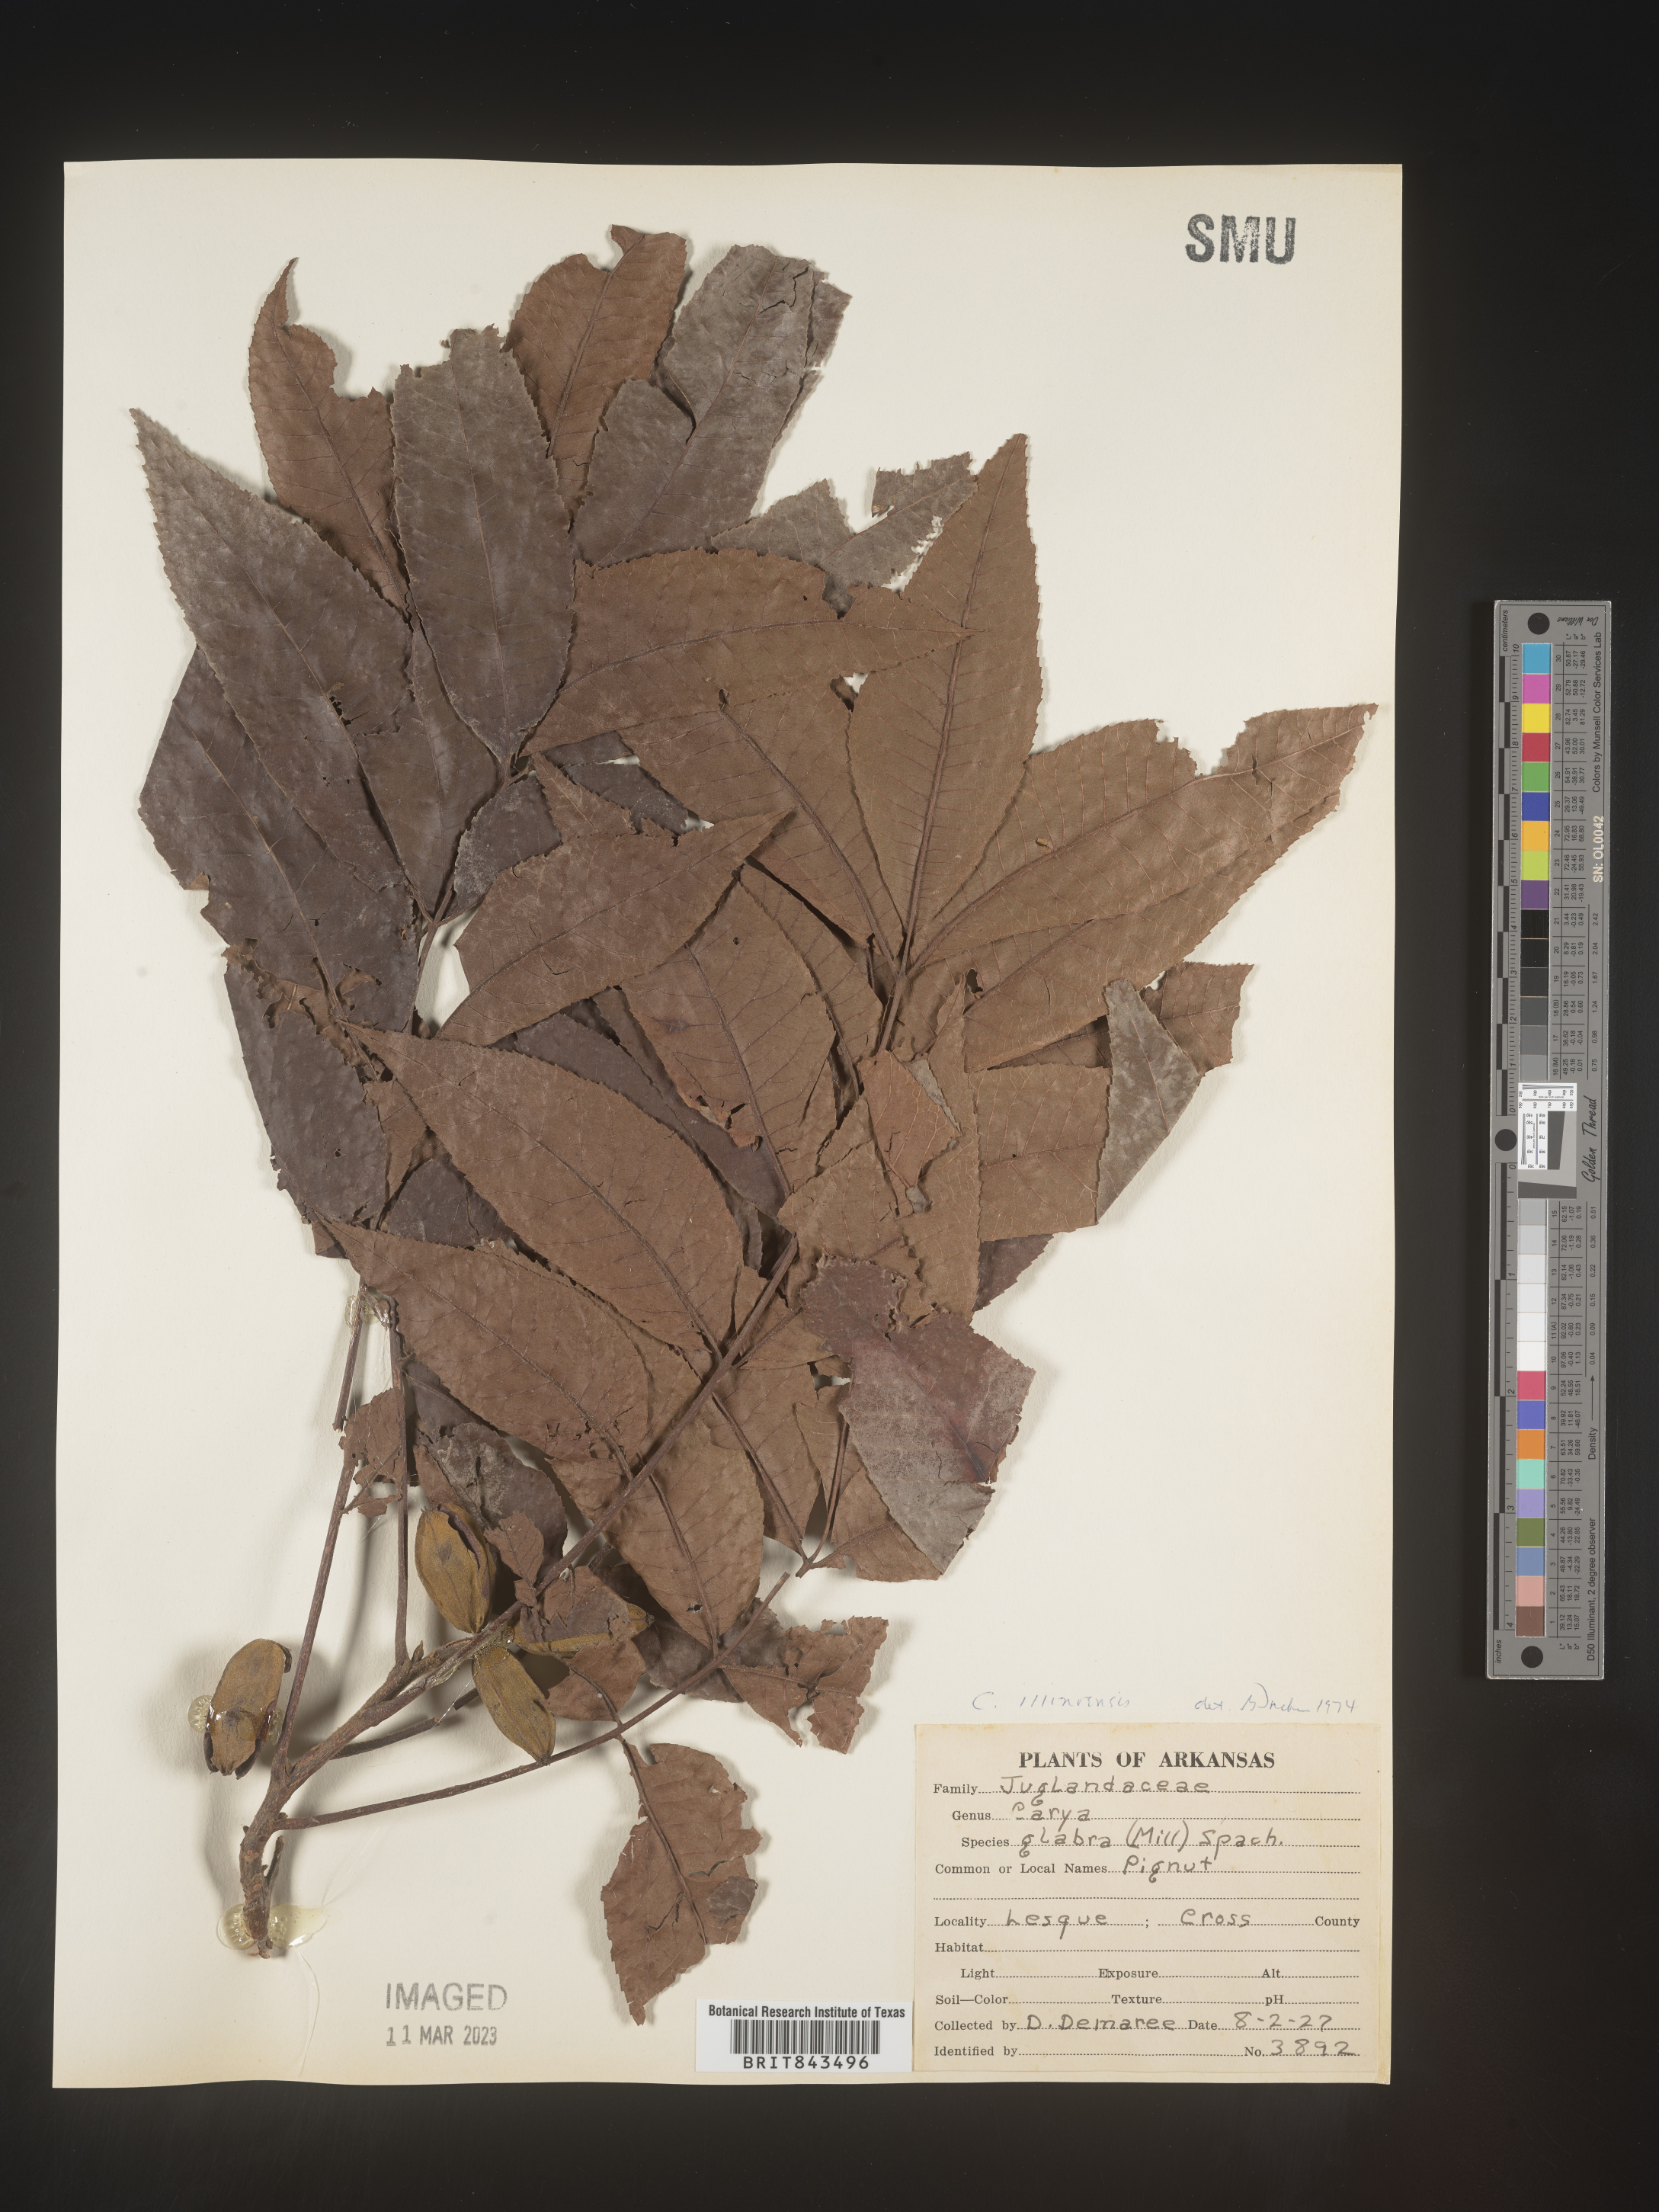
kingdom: Plantae
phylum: Tracheophyta
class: Magnoliopsida
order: Fagales
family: Juglandaceae
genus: Carya
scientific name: Carya illinoinensis
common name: Pecan
